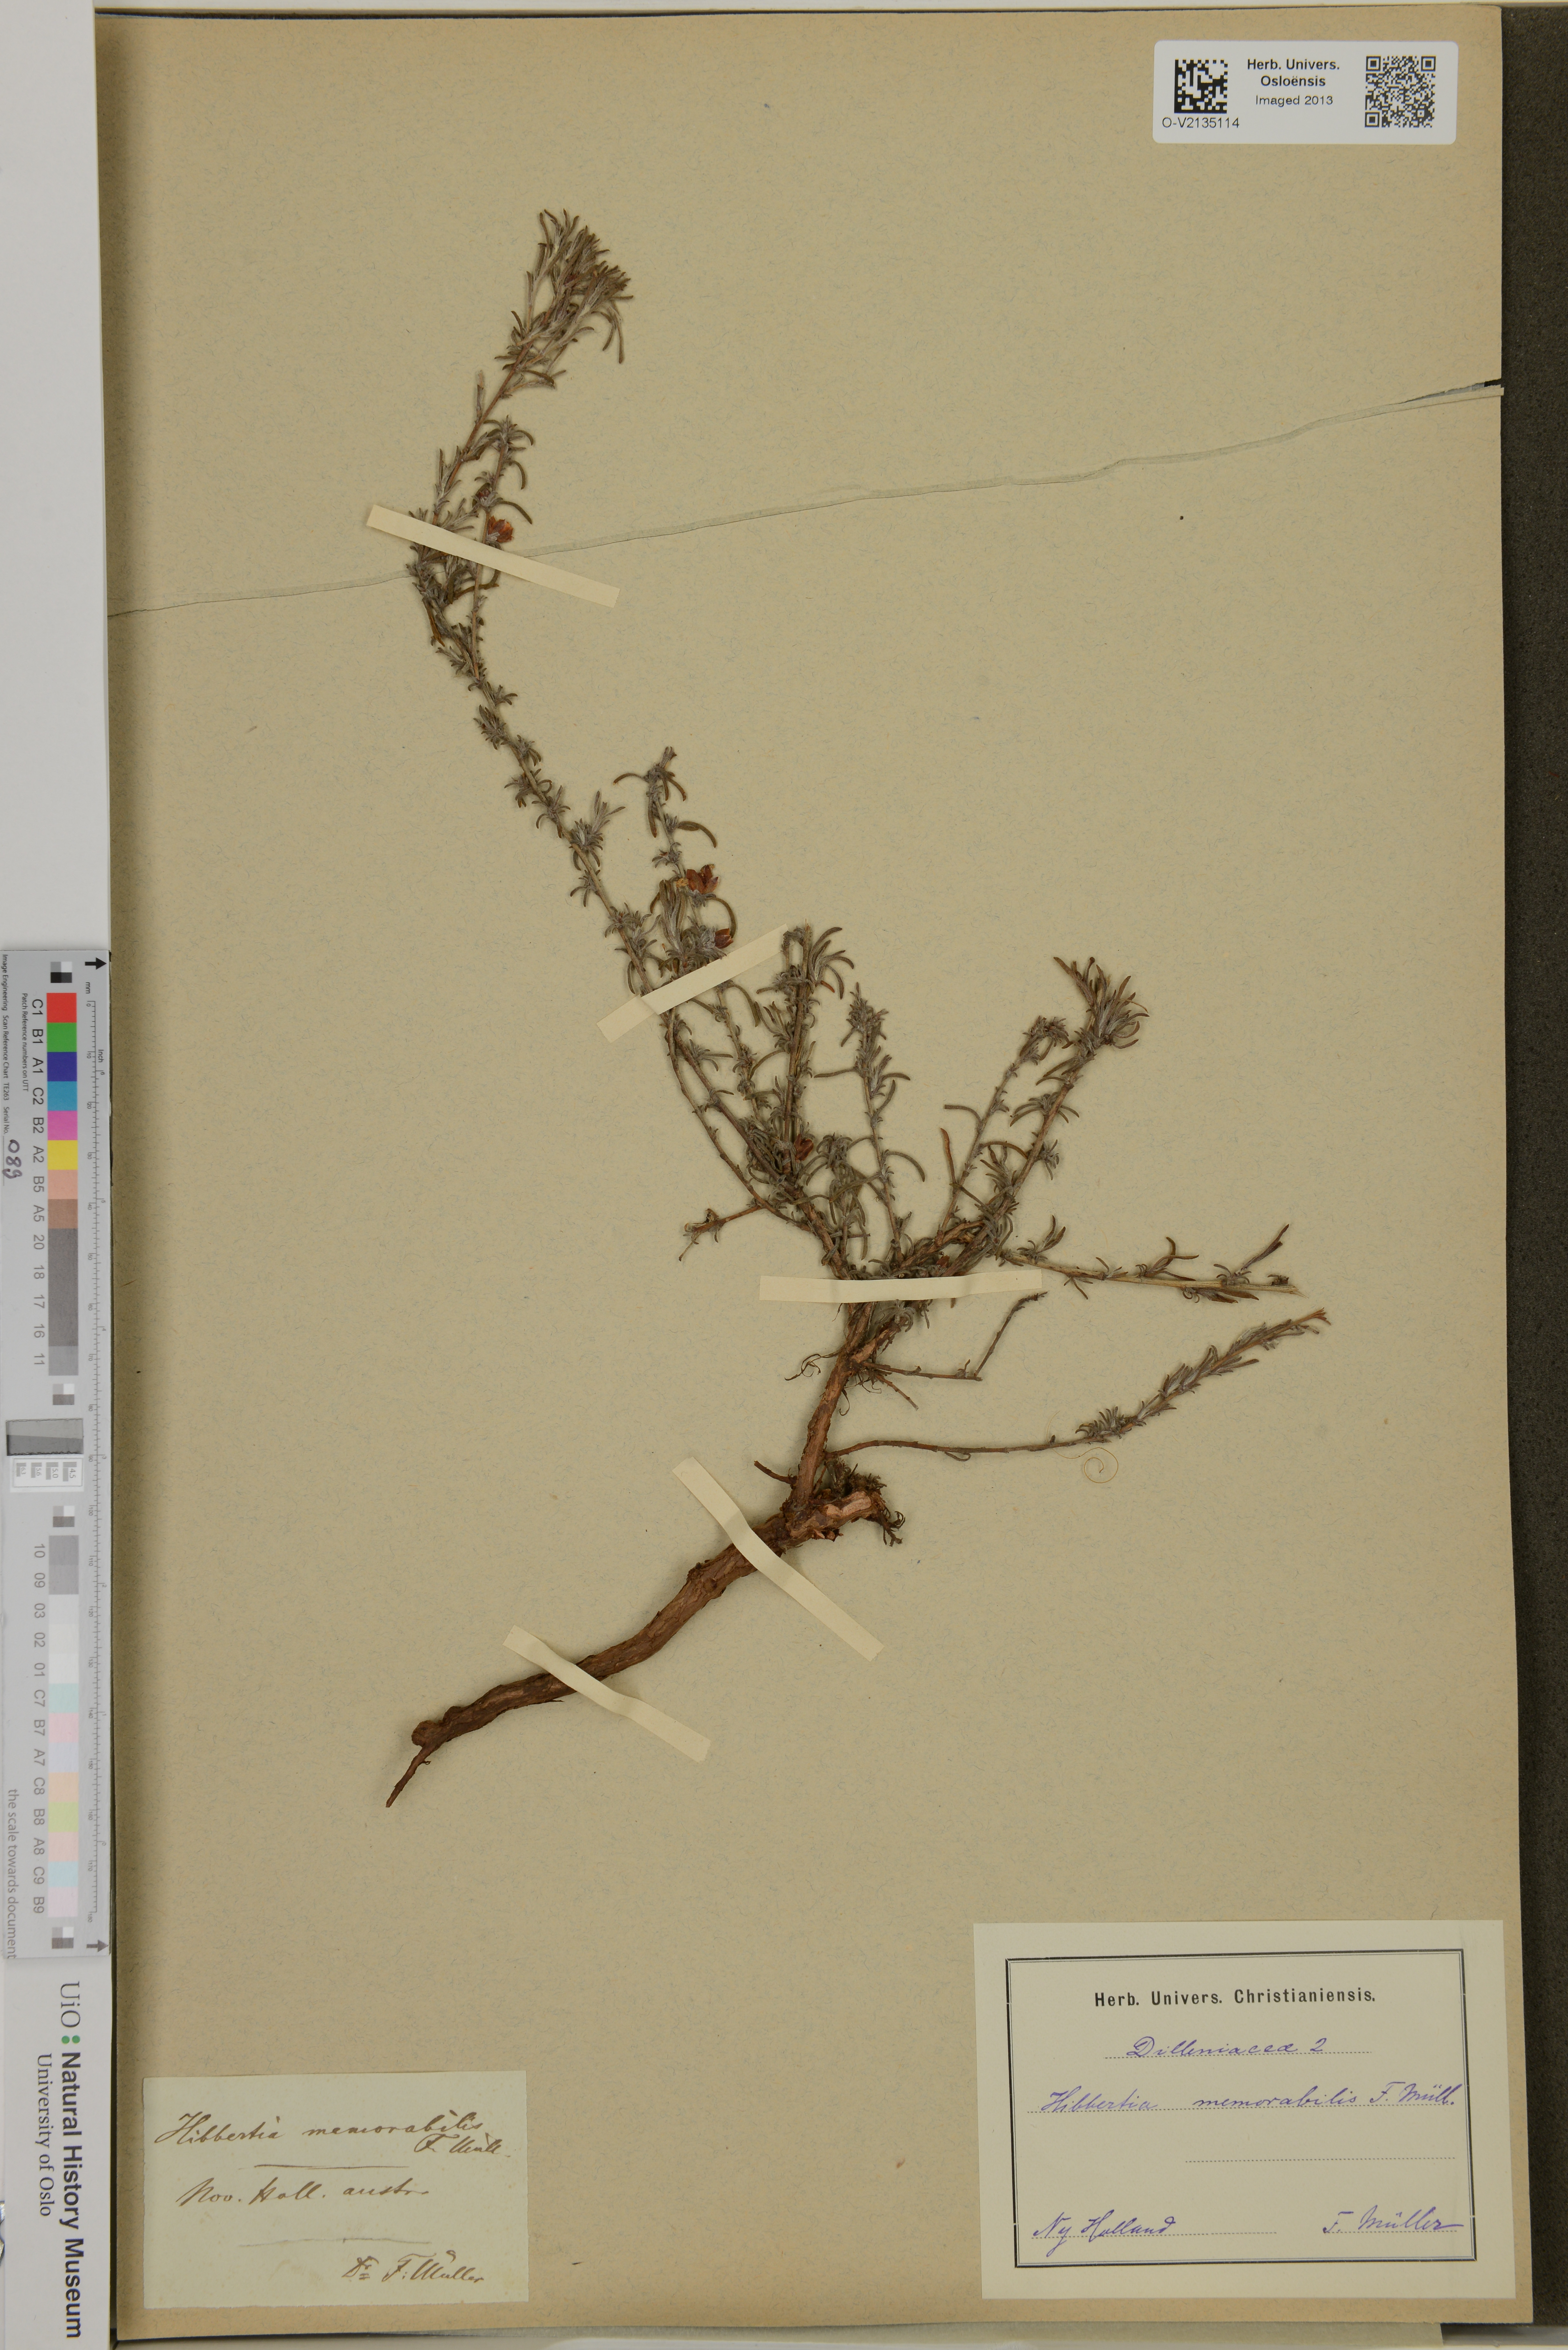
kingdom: Plantae
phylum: Tracheophyta
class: Magnoliopsida
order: Dilleniales
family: Dilleniaceae
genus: Hibbertia
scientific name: Hibbertia
